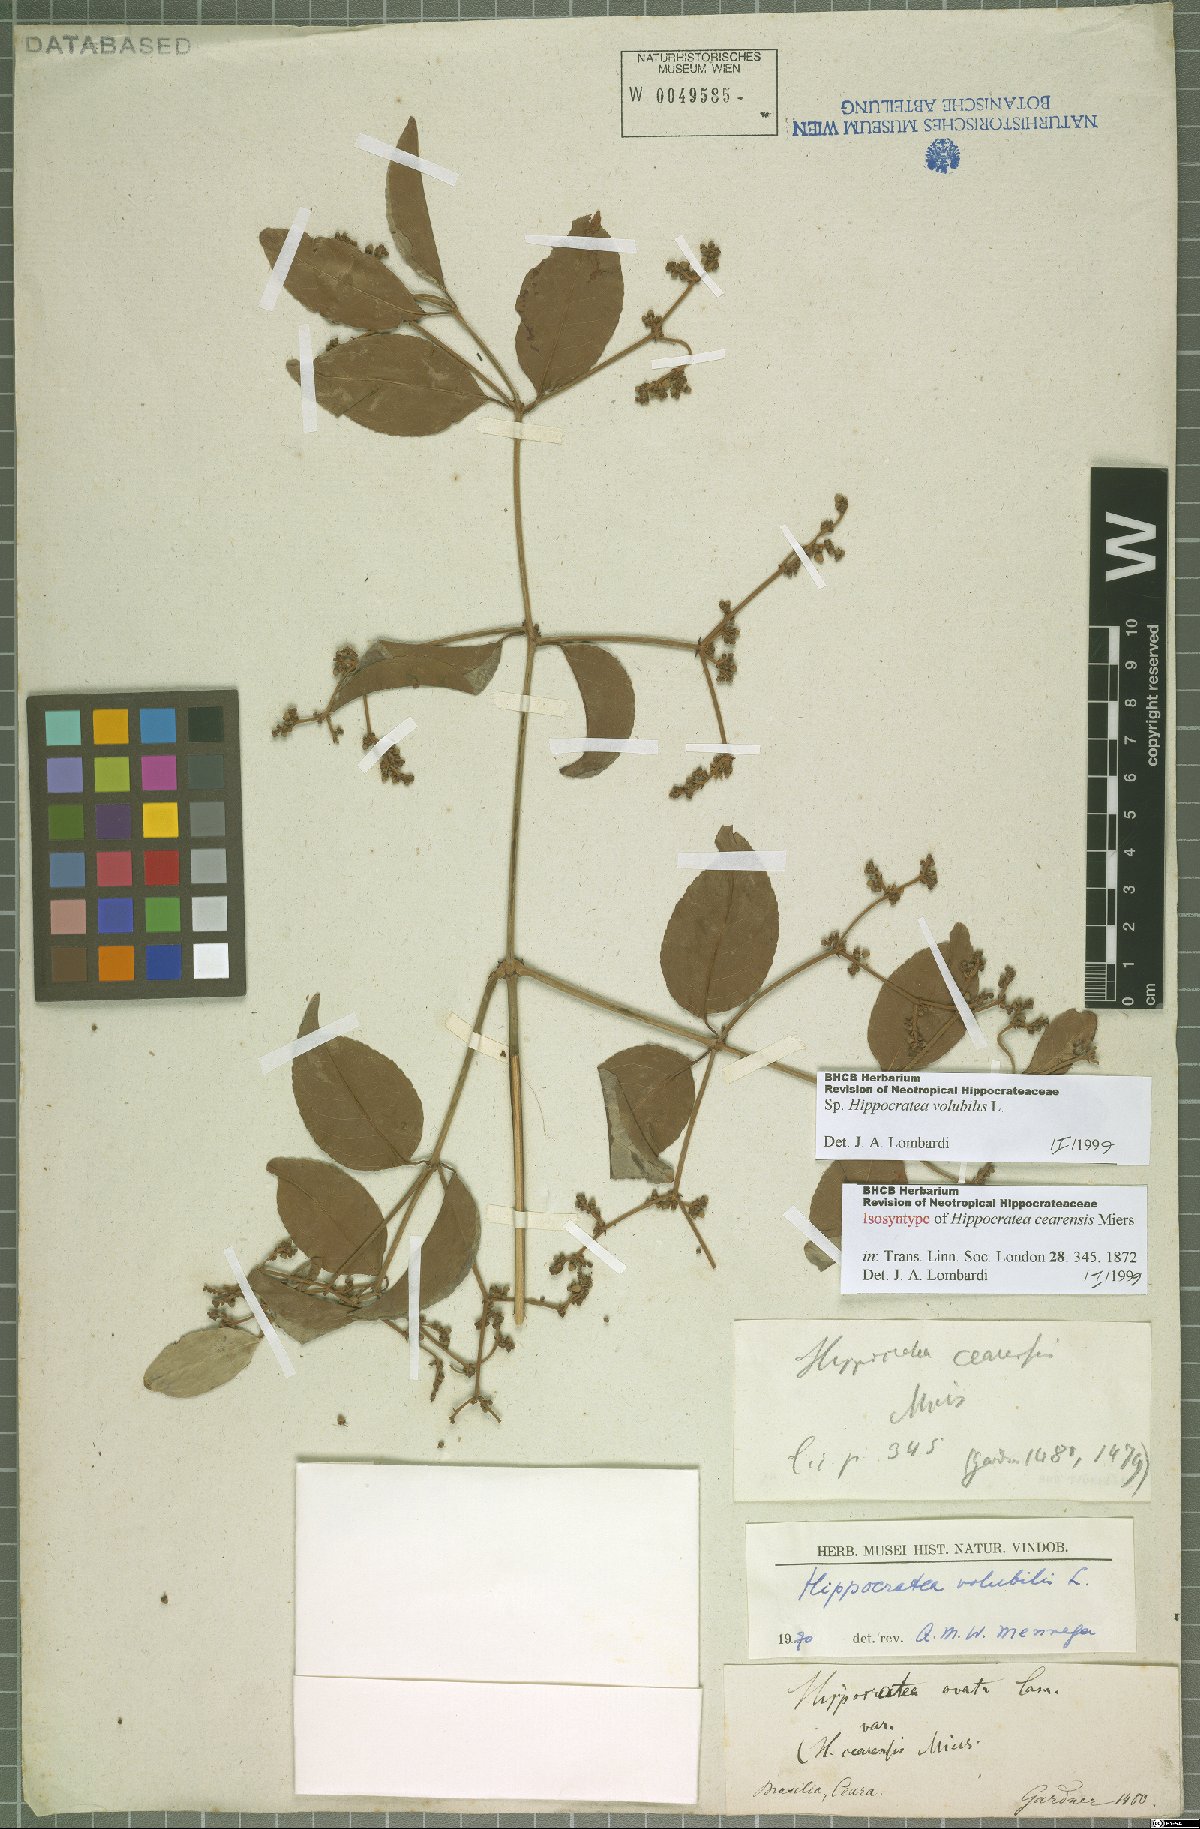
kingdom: Plantae
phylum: Tracheophyta
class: Magnoliopsida
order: Celastrales
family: Celastraceae
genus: Hippocratea
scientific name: Hippocratea volubilis
